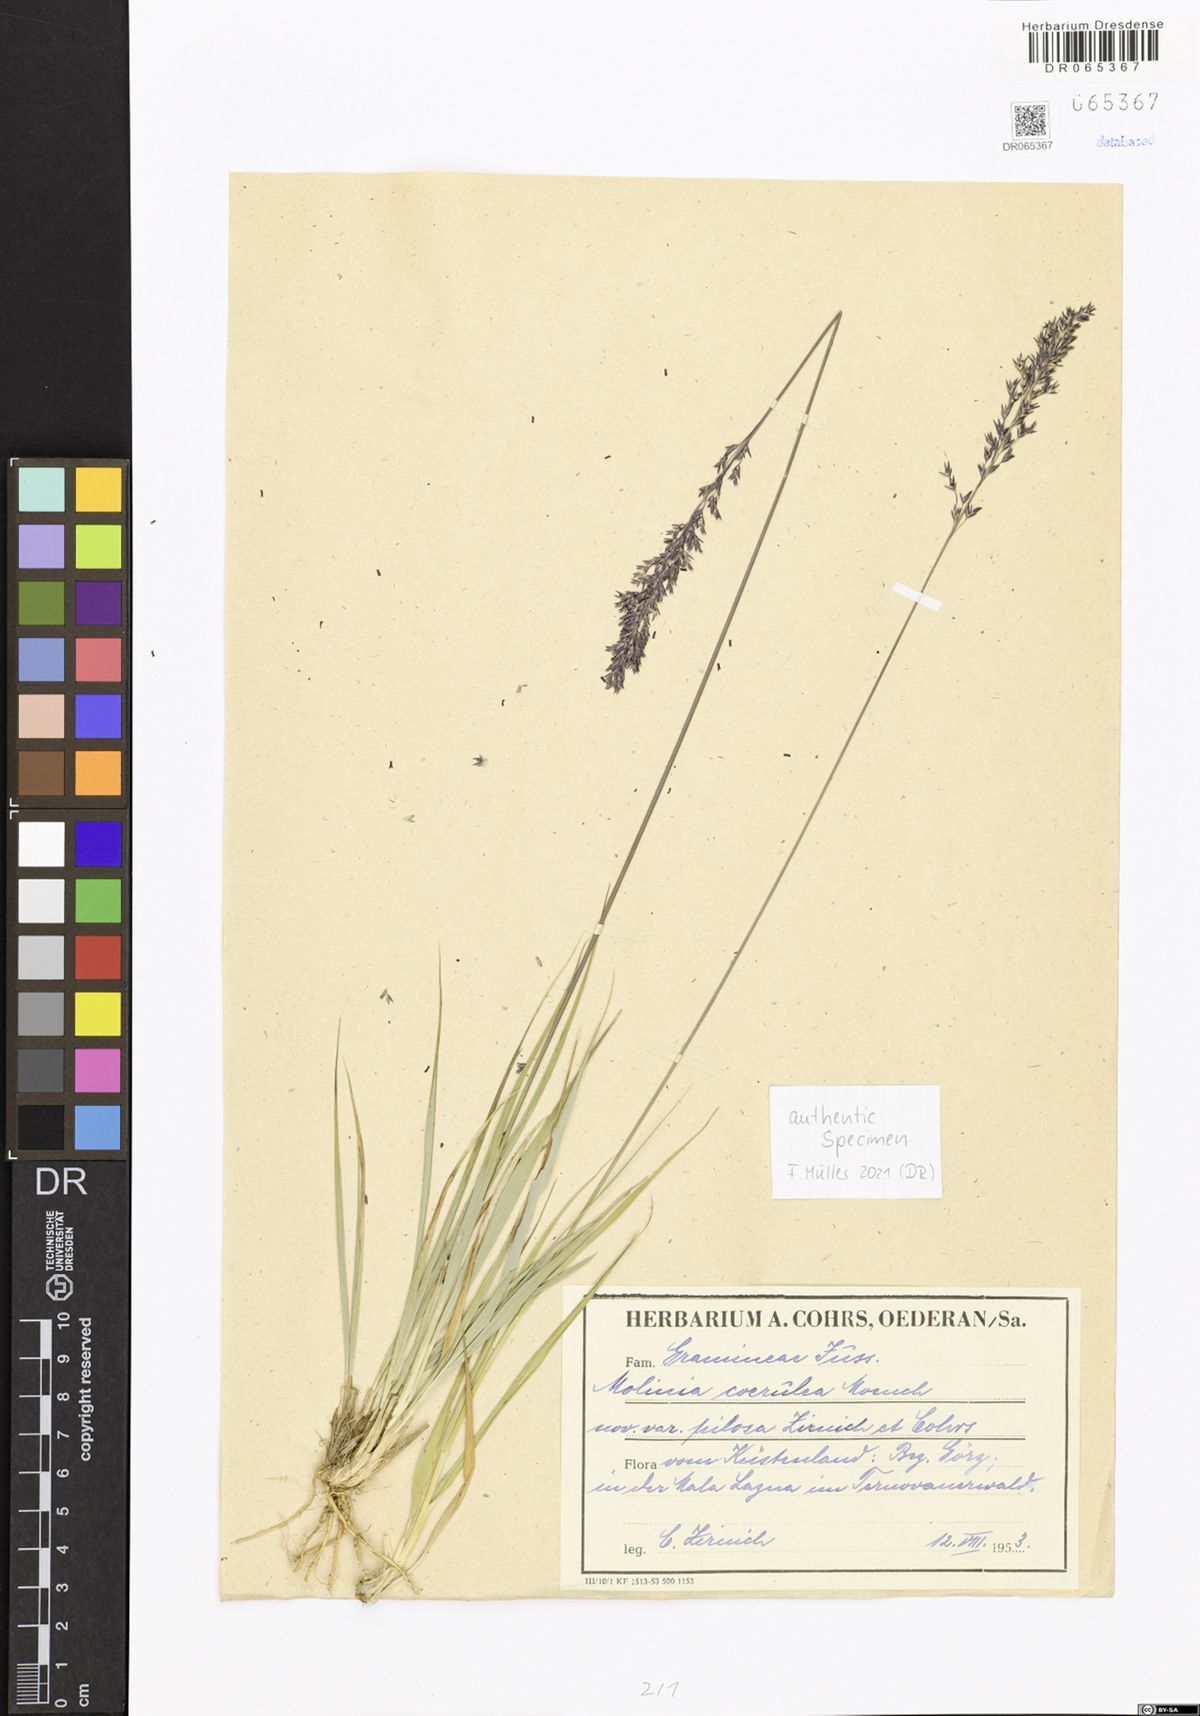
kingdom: Plantae
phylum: Tracheophyta
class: Liliopsida
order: Poales
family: Poaceae
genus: Molinia
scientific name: Molinia caerulea
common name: Purple moor-grass
